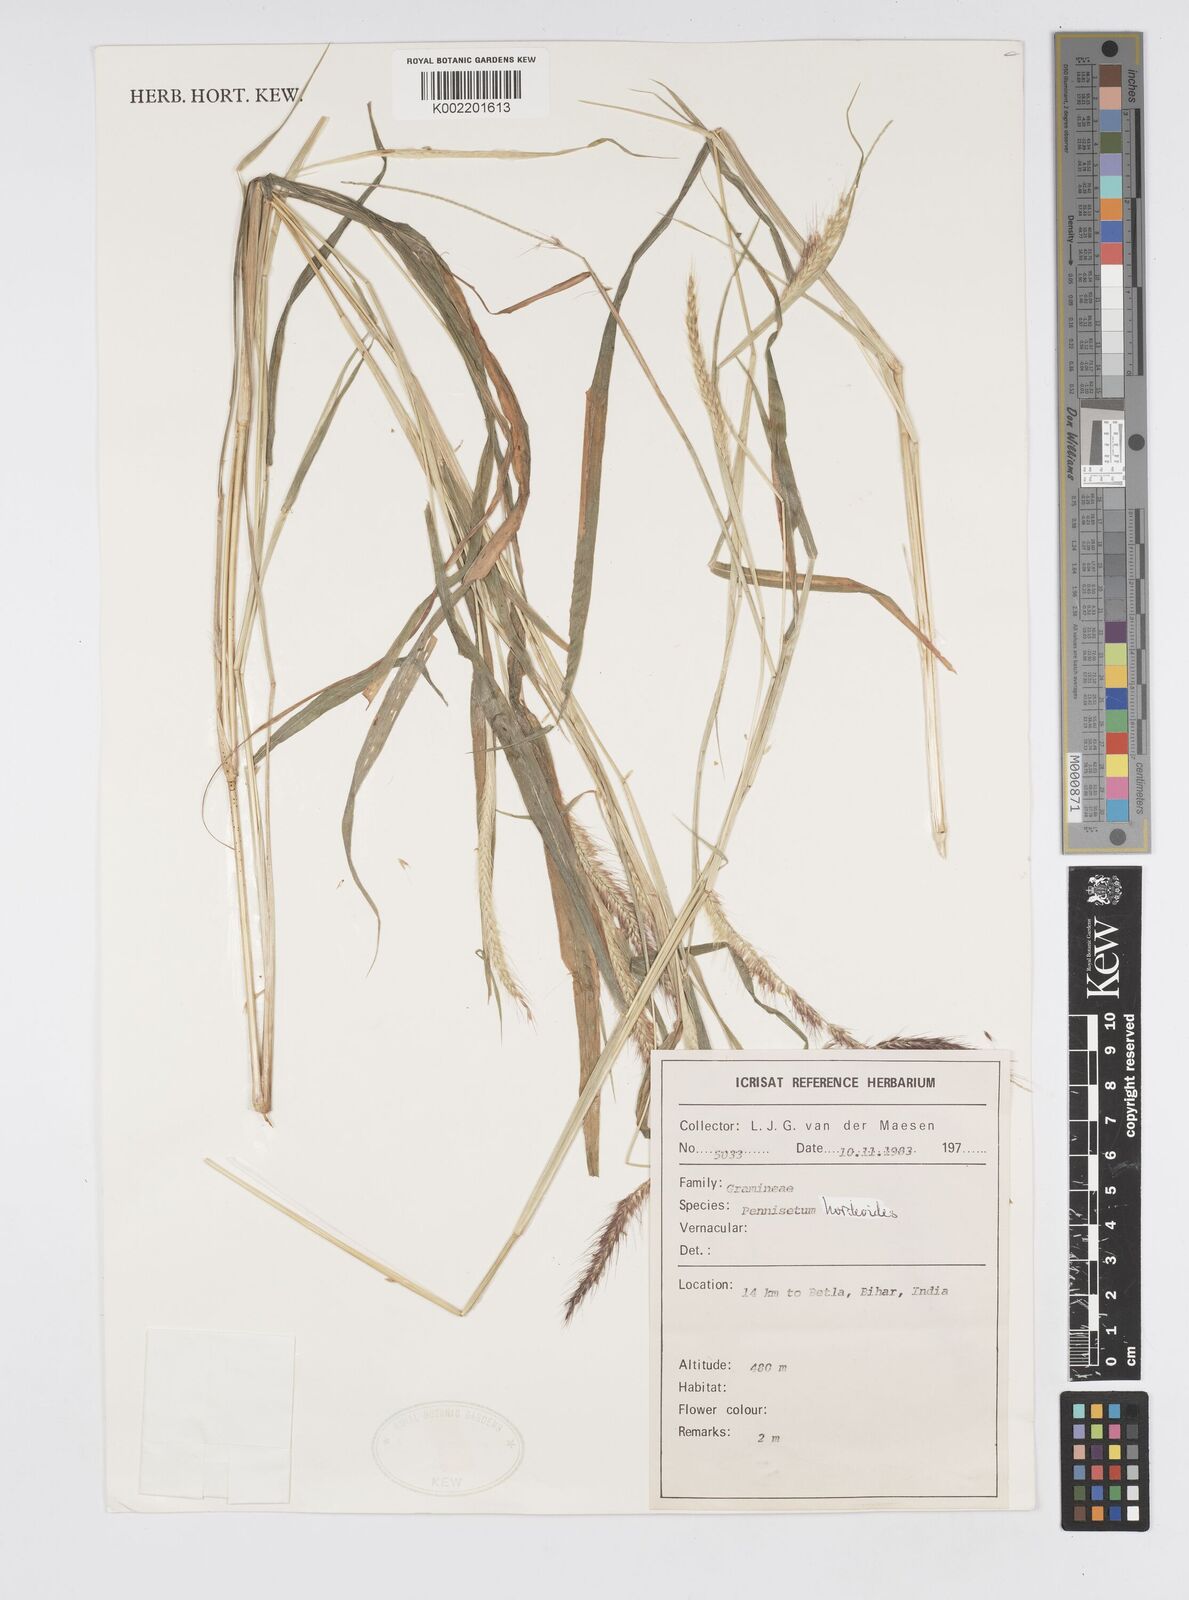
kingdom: Plantae
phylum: Tracheophyta
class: Liliopsida
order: Poales
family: Poaceae
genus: Cenchrus
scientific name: Cenchrus hordeoides
